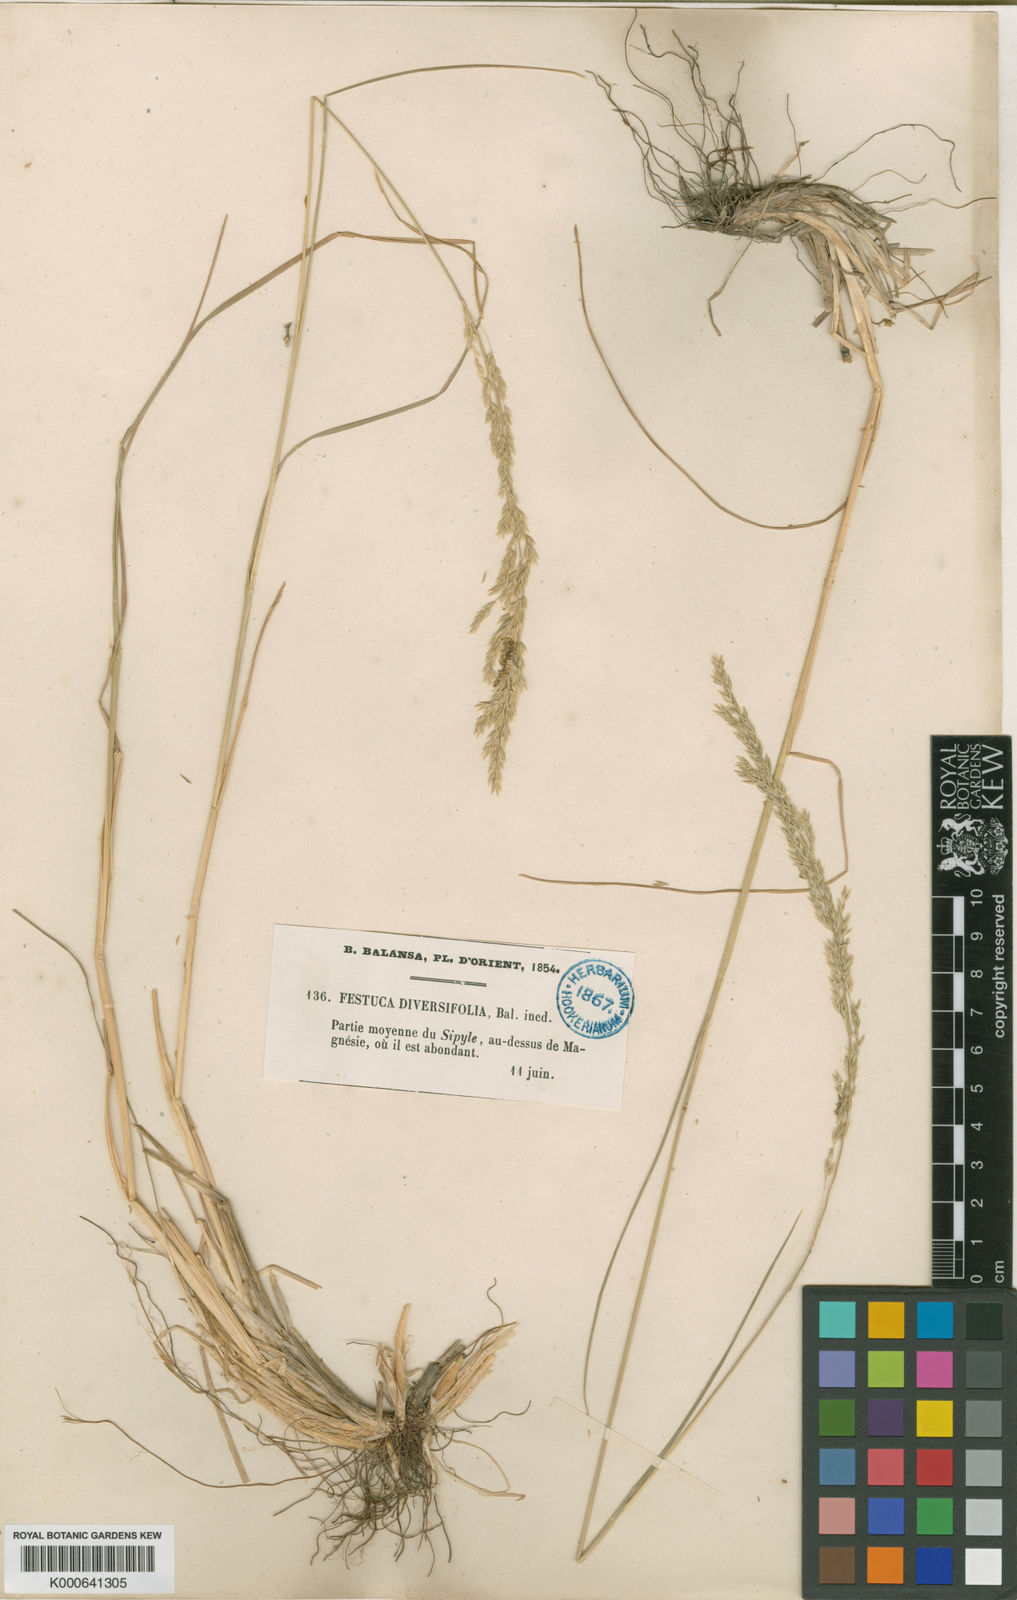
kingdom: Plantae
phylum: Tracheophyta
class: Liliopsida
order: Poales
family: Poaceae
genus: Poa
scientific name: Poa diversifolia
